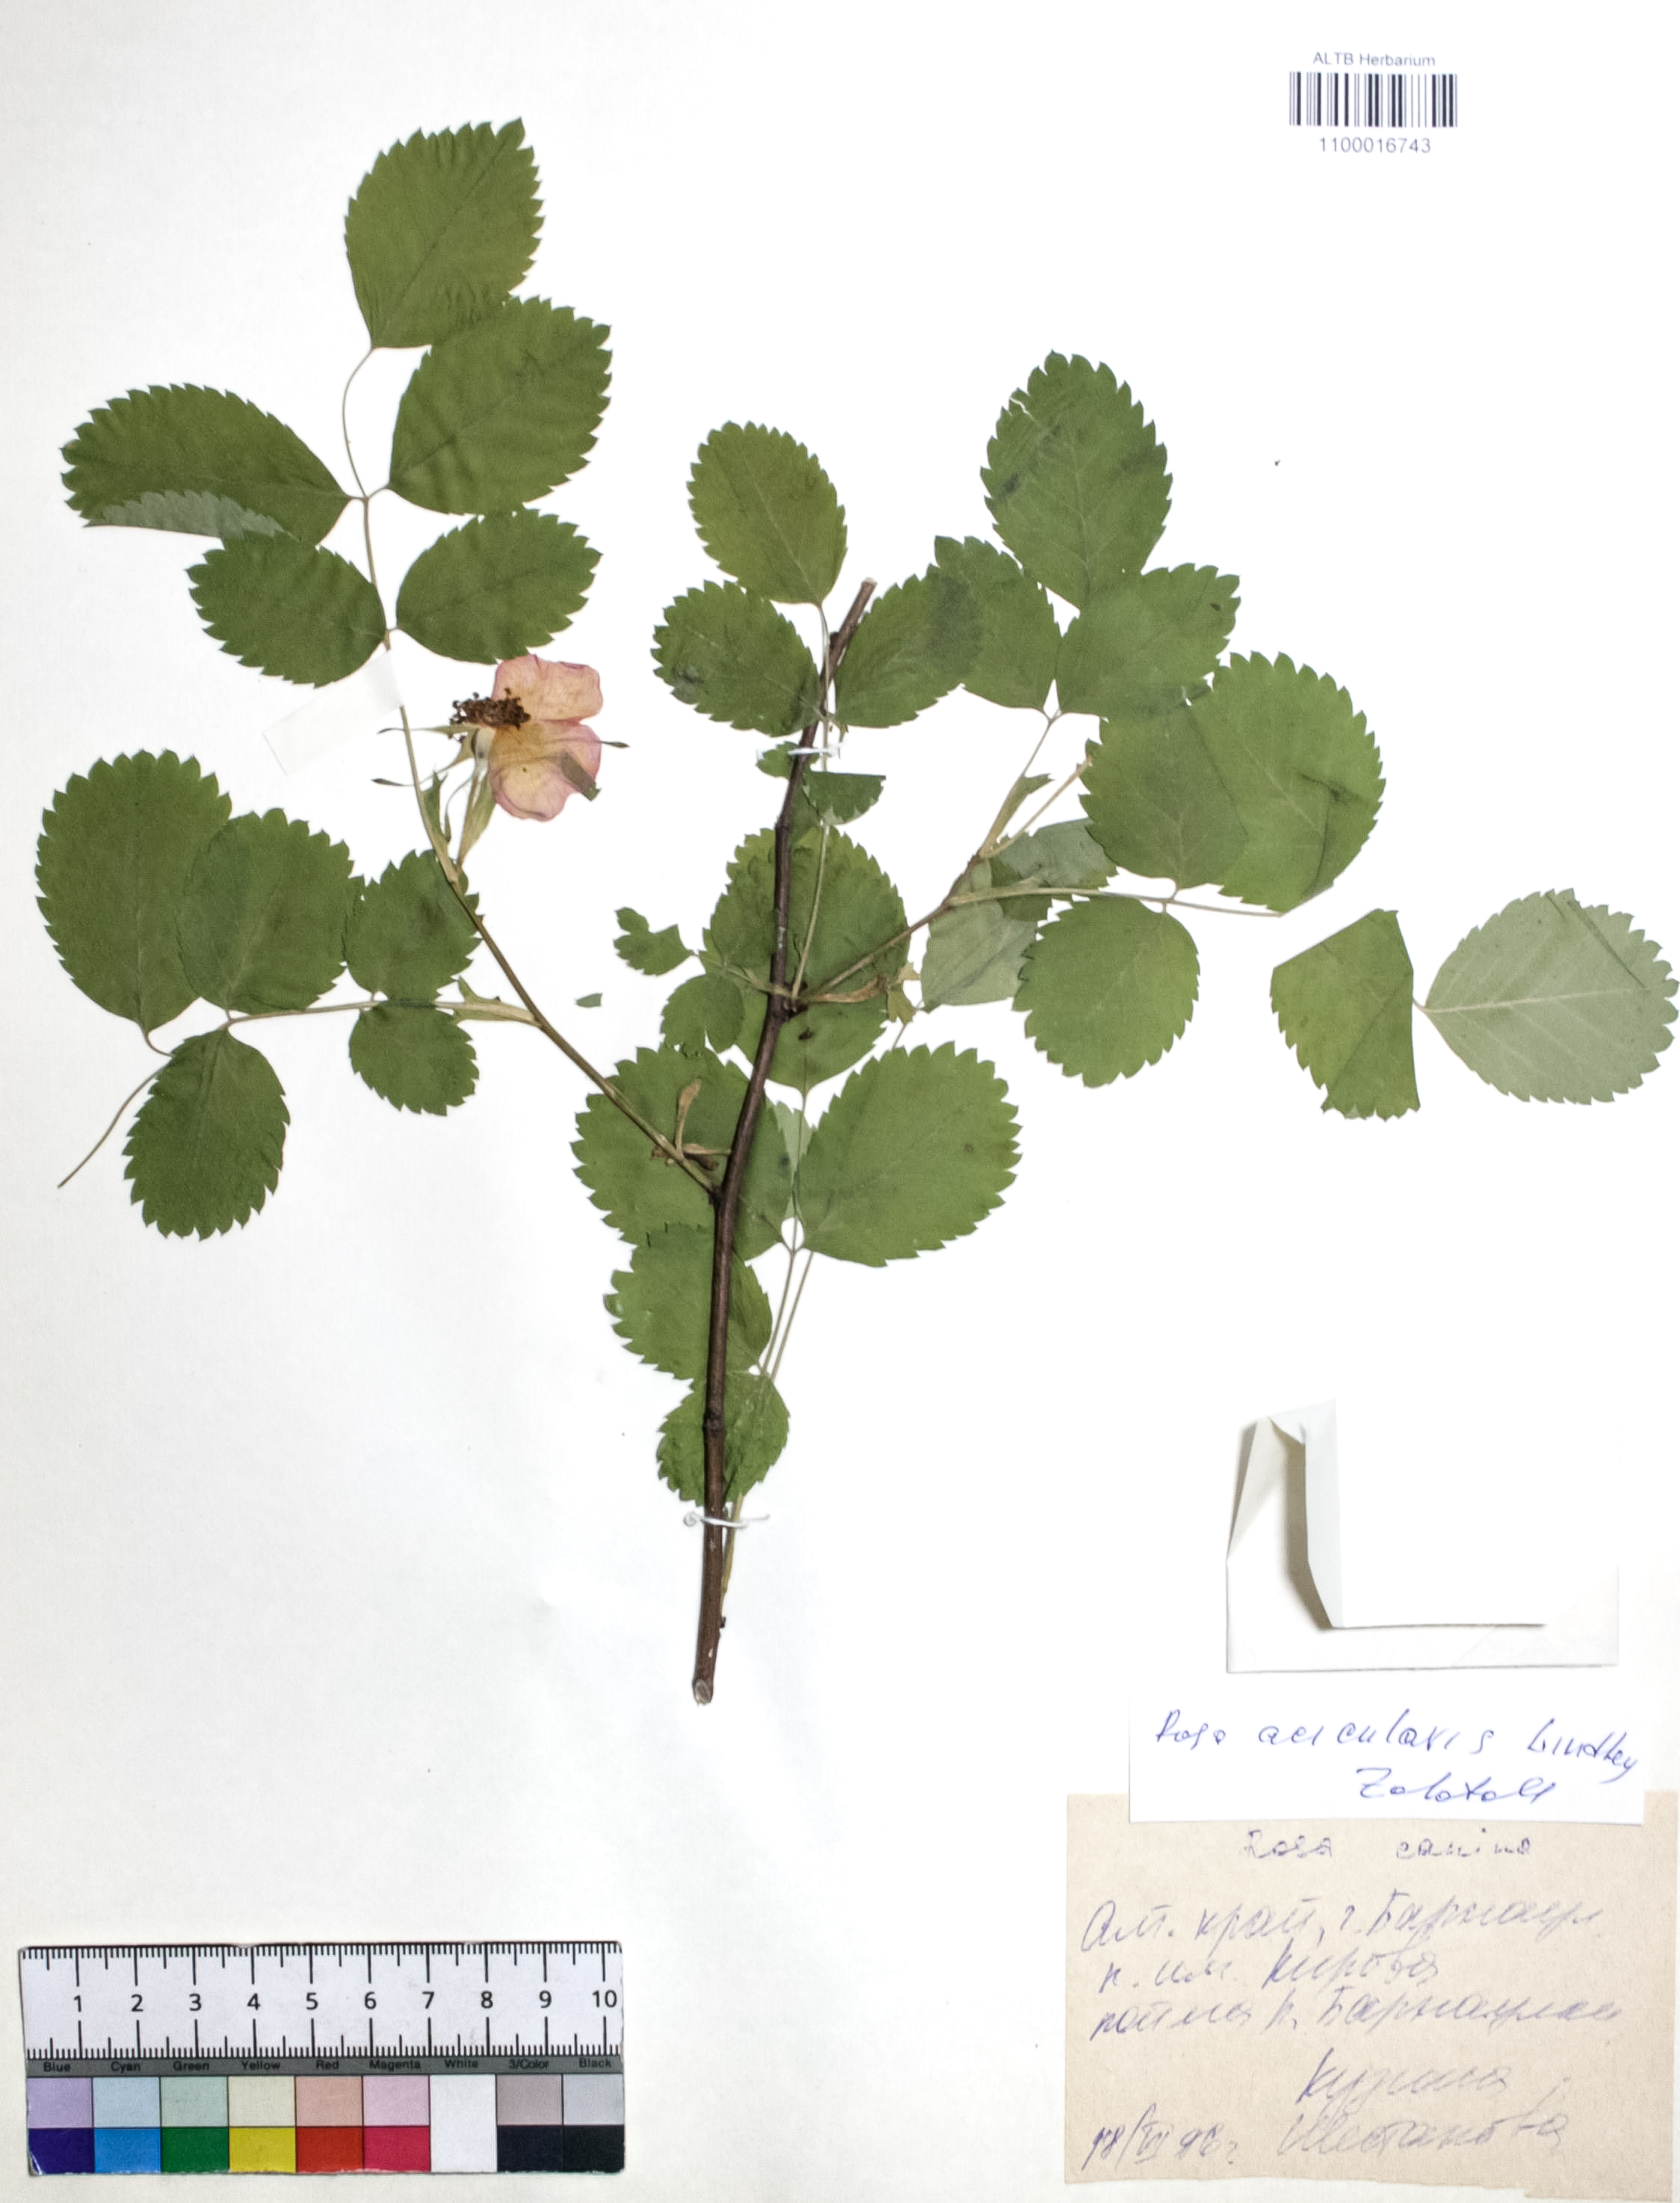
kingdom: Plantae
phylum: Tracheophyta
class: Magnoliopsida
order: Rosales
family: Rosaceae
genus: Rosa
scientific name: Rosa acicularis
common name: Prickly rose
